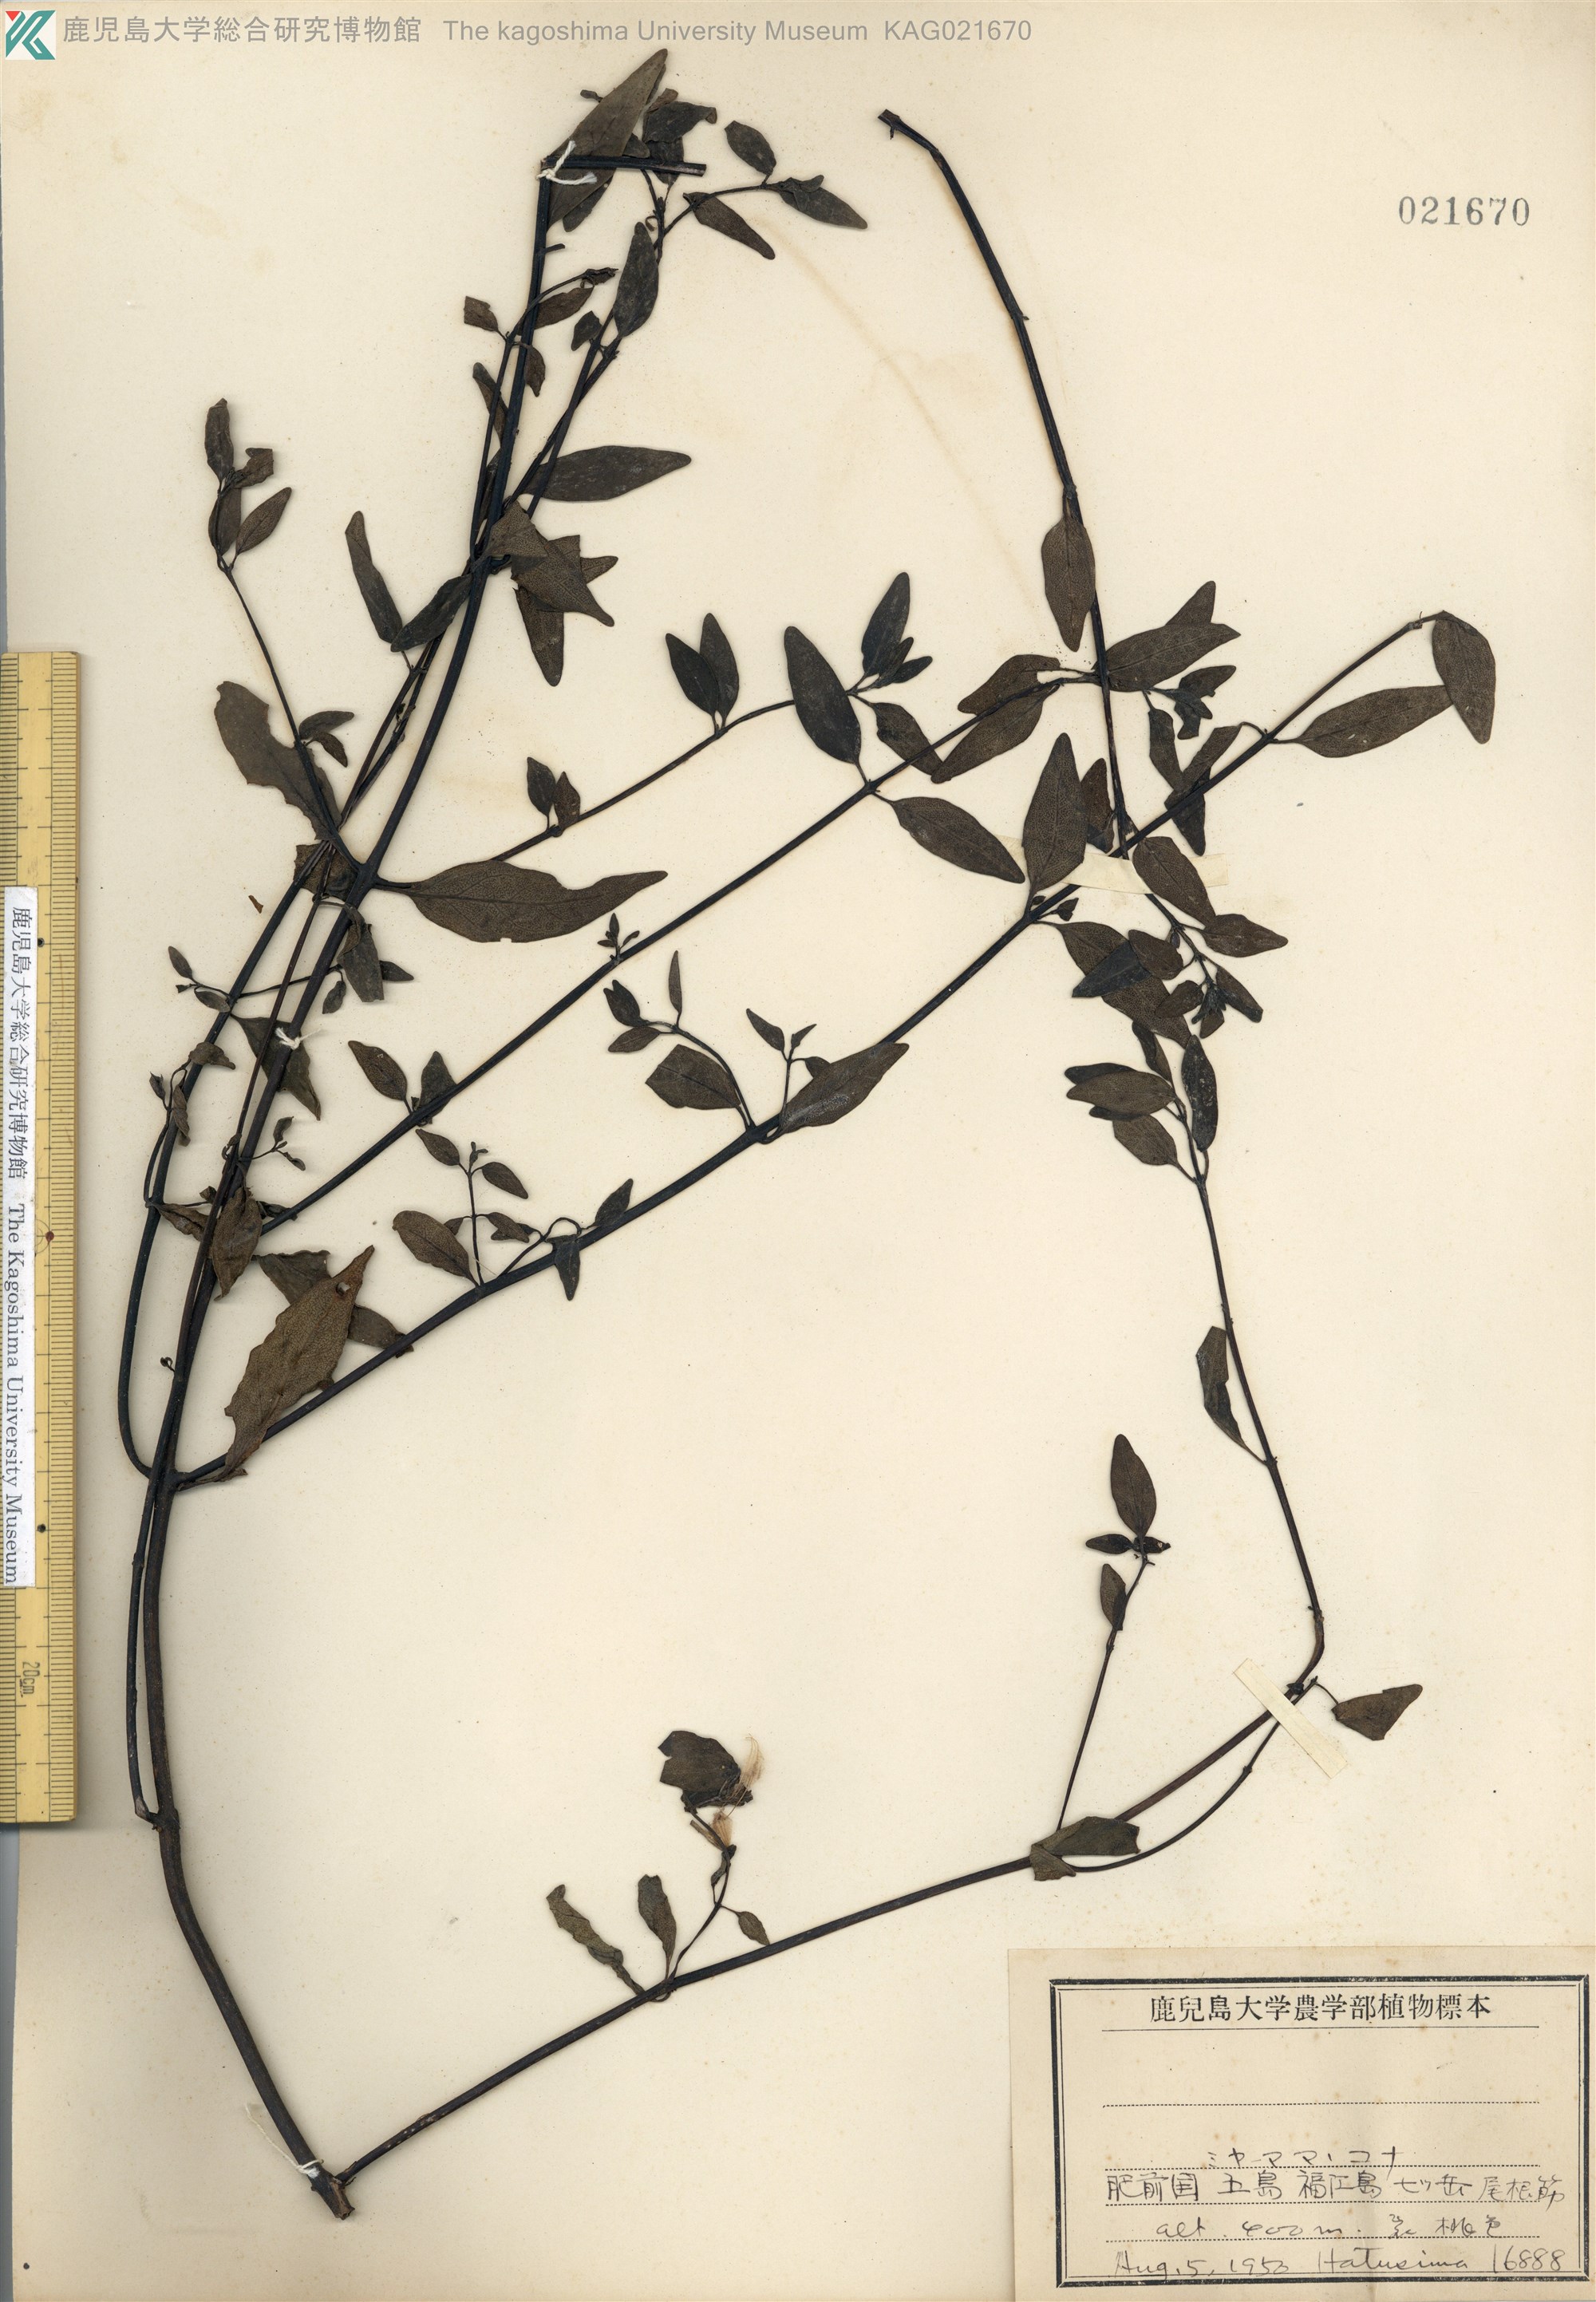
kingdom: Plantae
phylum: Tracheophyta
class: Magnoliopsida
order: Lamiales
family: Orobanchaceae
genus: Melampyrum
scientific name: Melampyrum laxum
